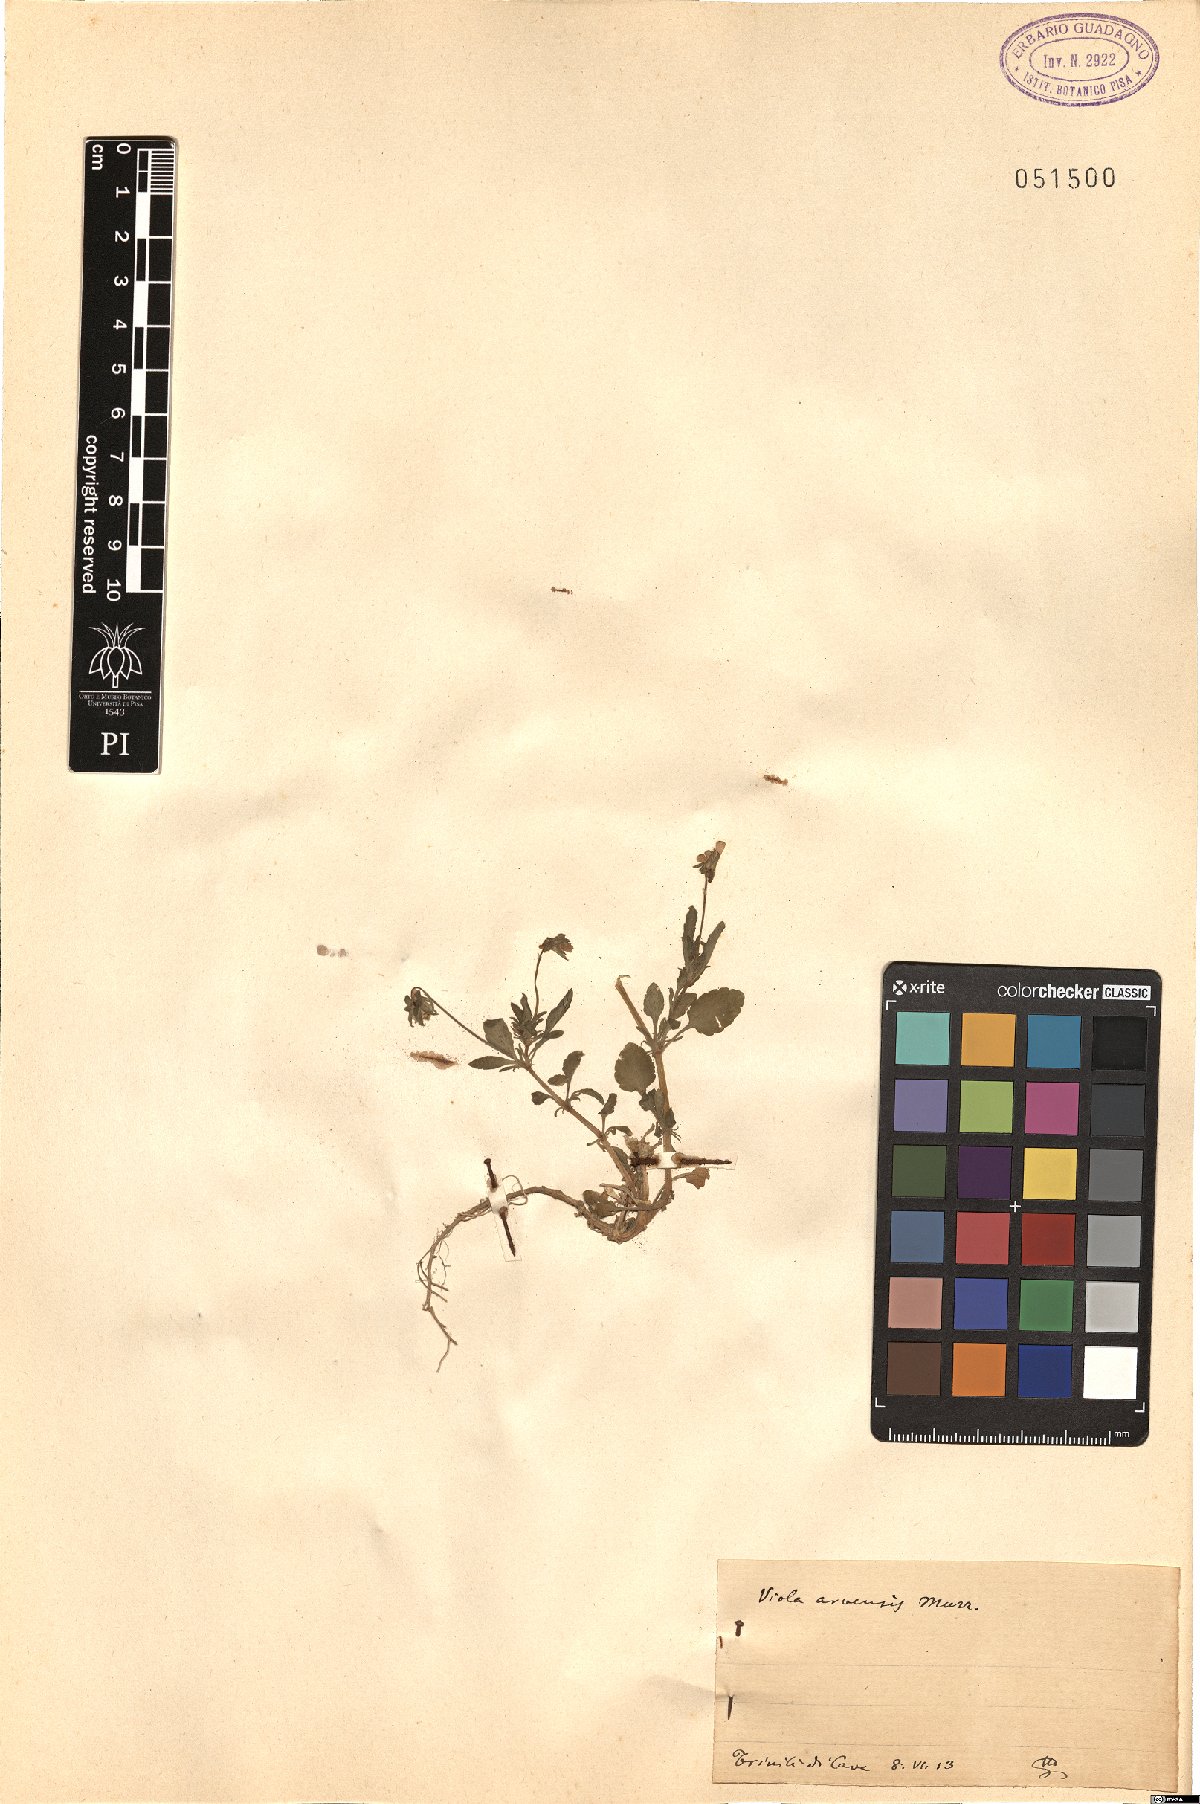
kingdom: Plantae
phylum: Tracheophyta
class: Magnoliopsida
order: Malpighiales
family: Violaceae
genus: Viola
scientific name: Viola arvensis
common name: Field pansy
